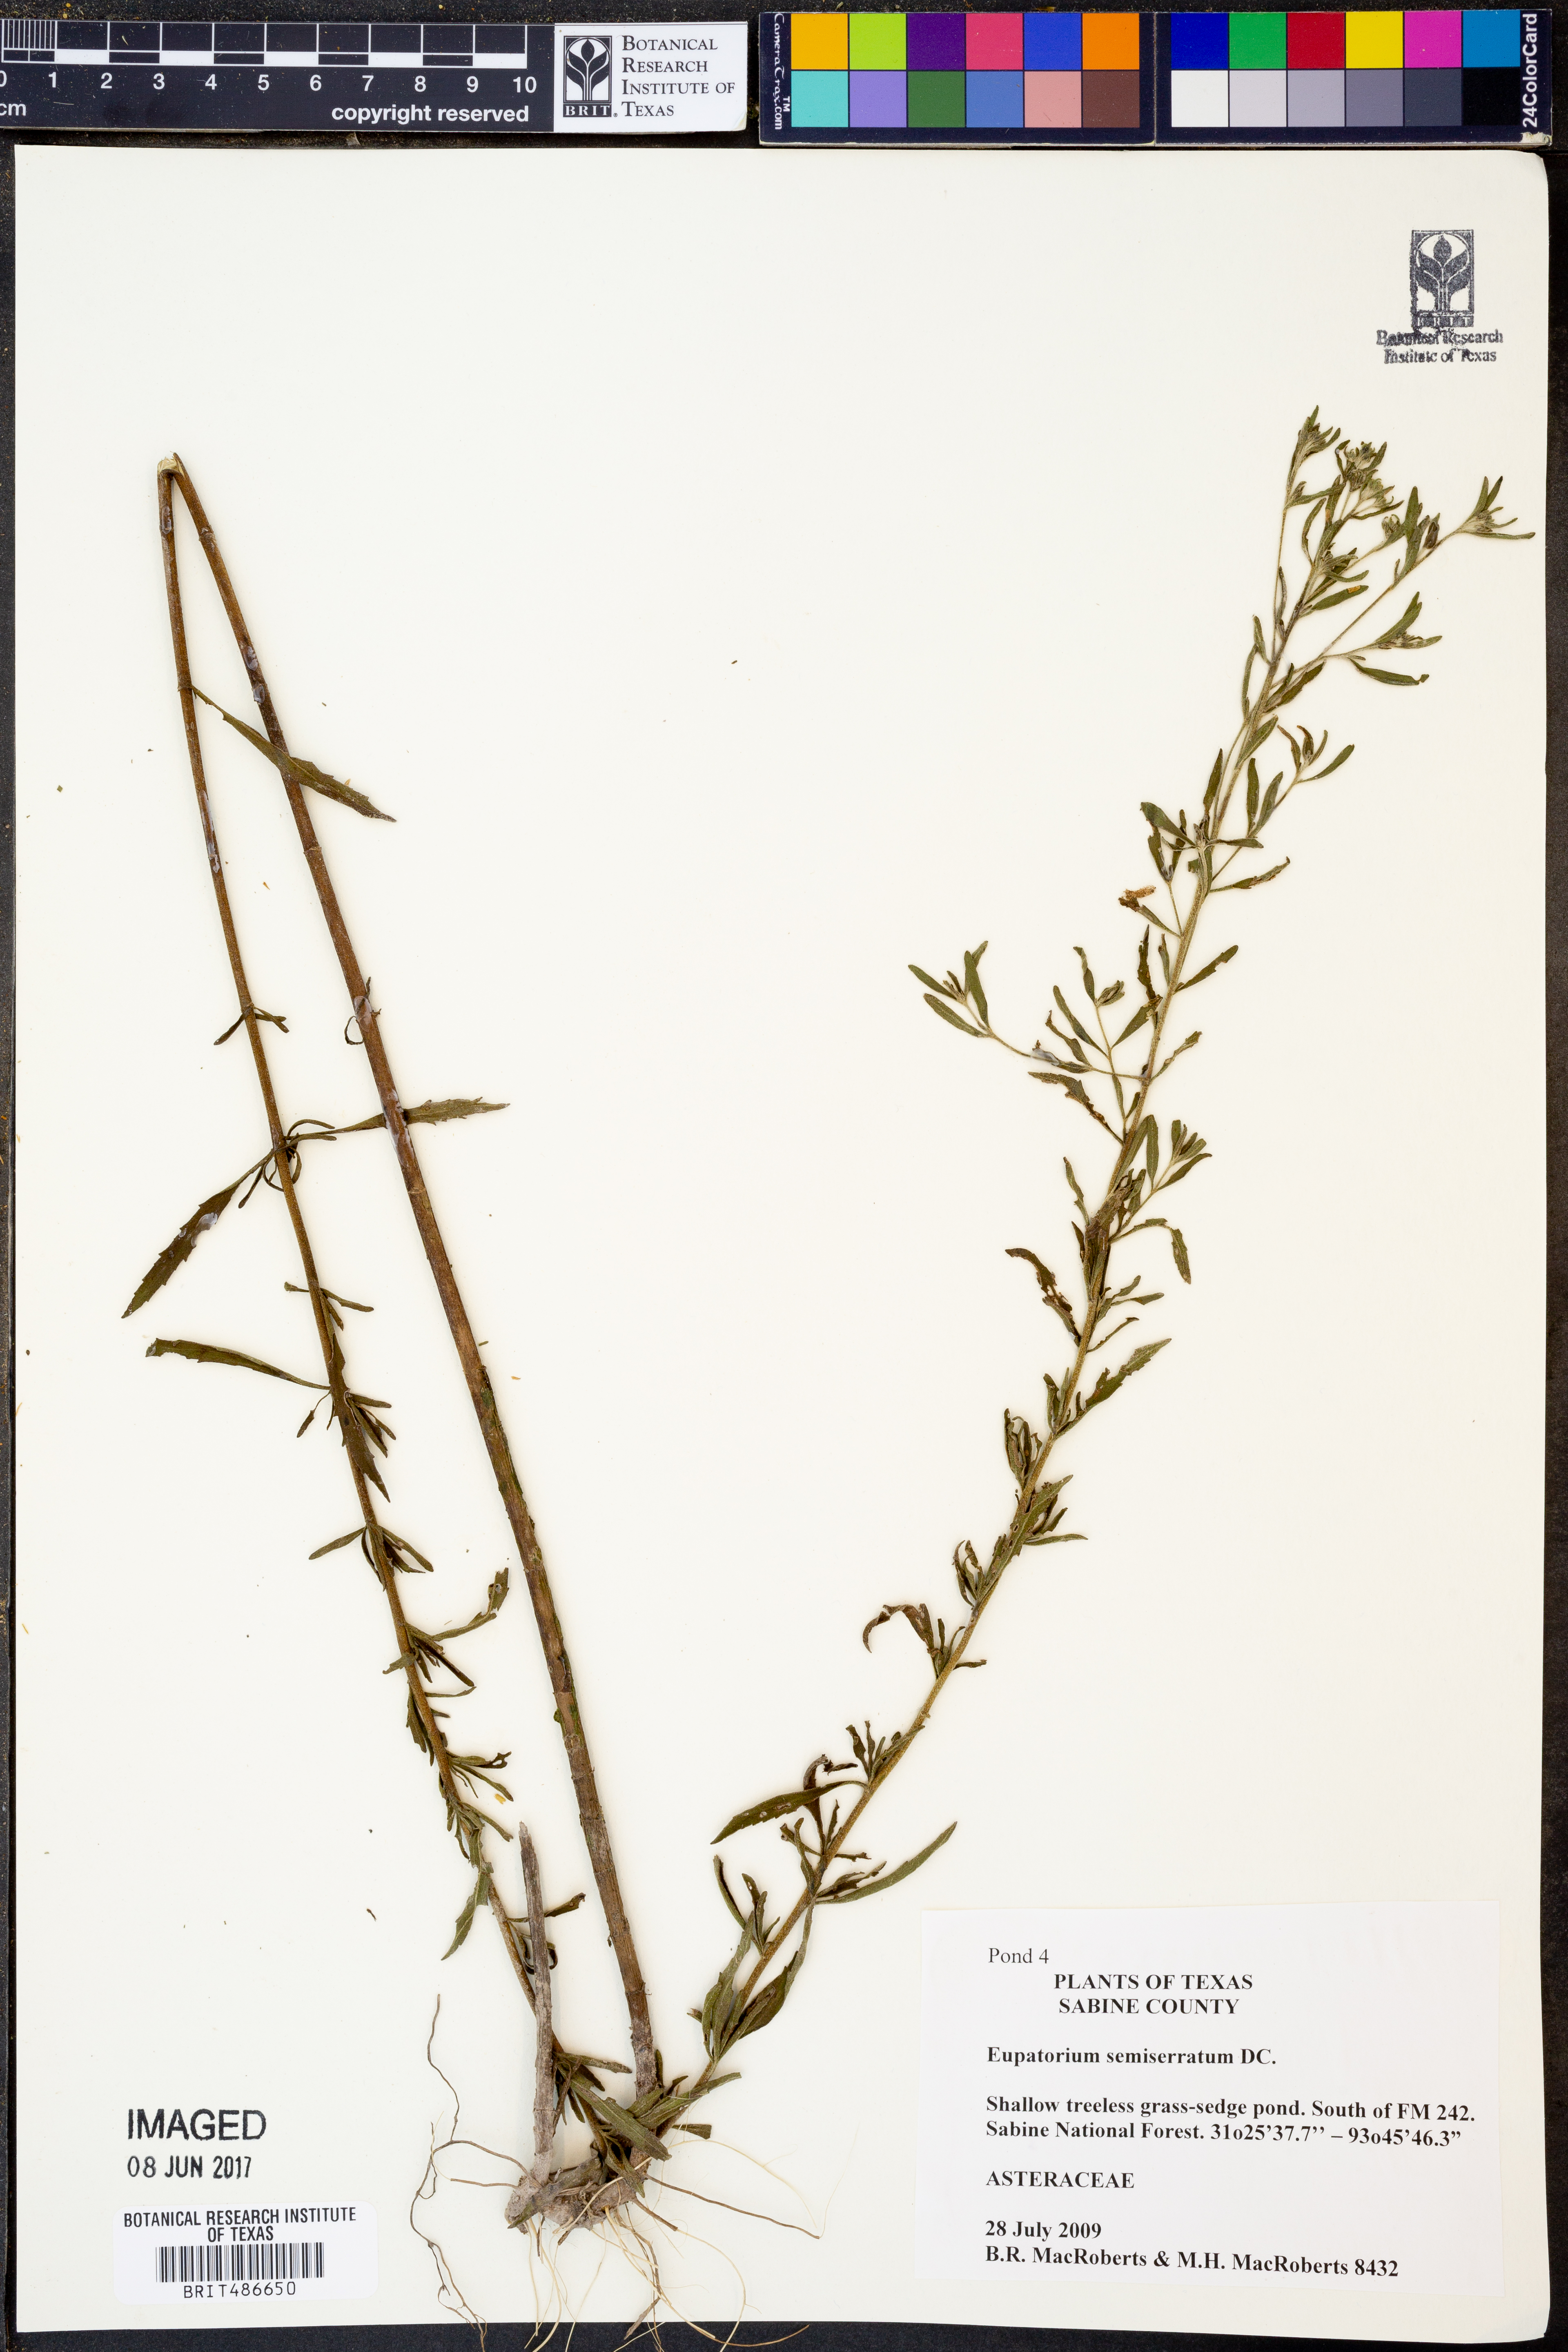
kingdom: Plantae
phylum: Tracheophyta
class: Magnoliopsida
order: Asterales
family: Asteraceae
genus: Eupatorium
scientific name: Eupatorium semiserratum
